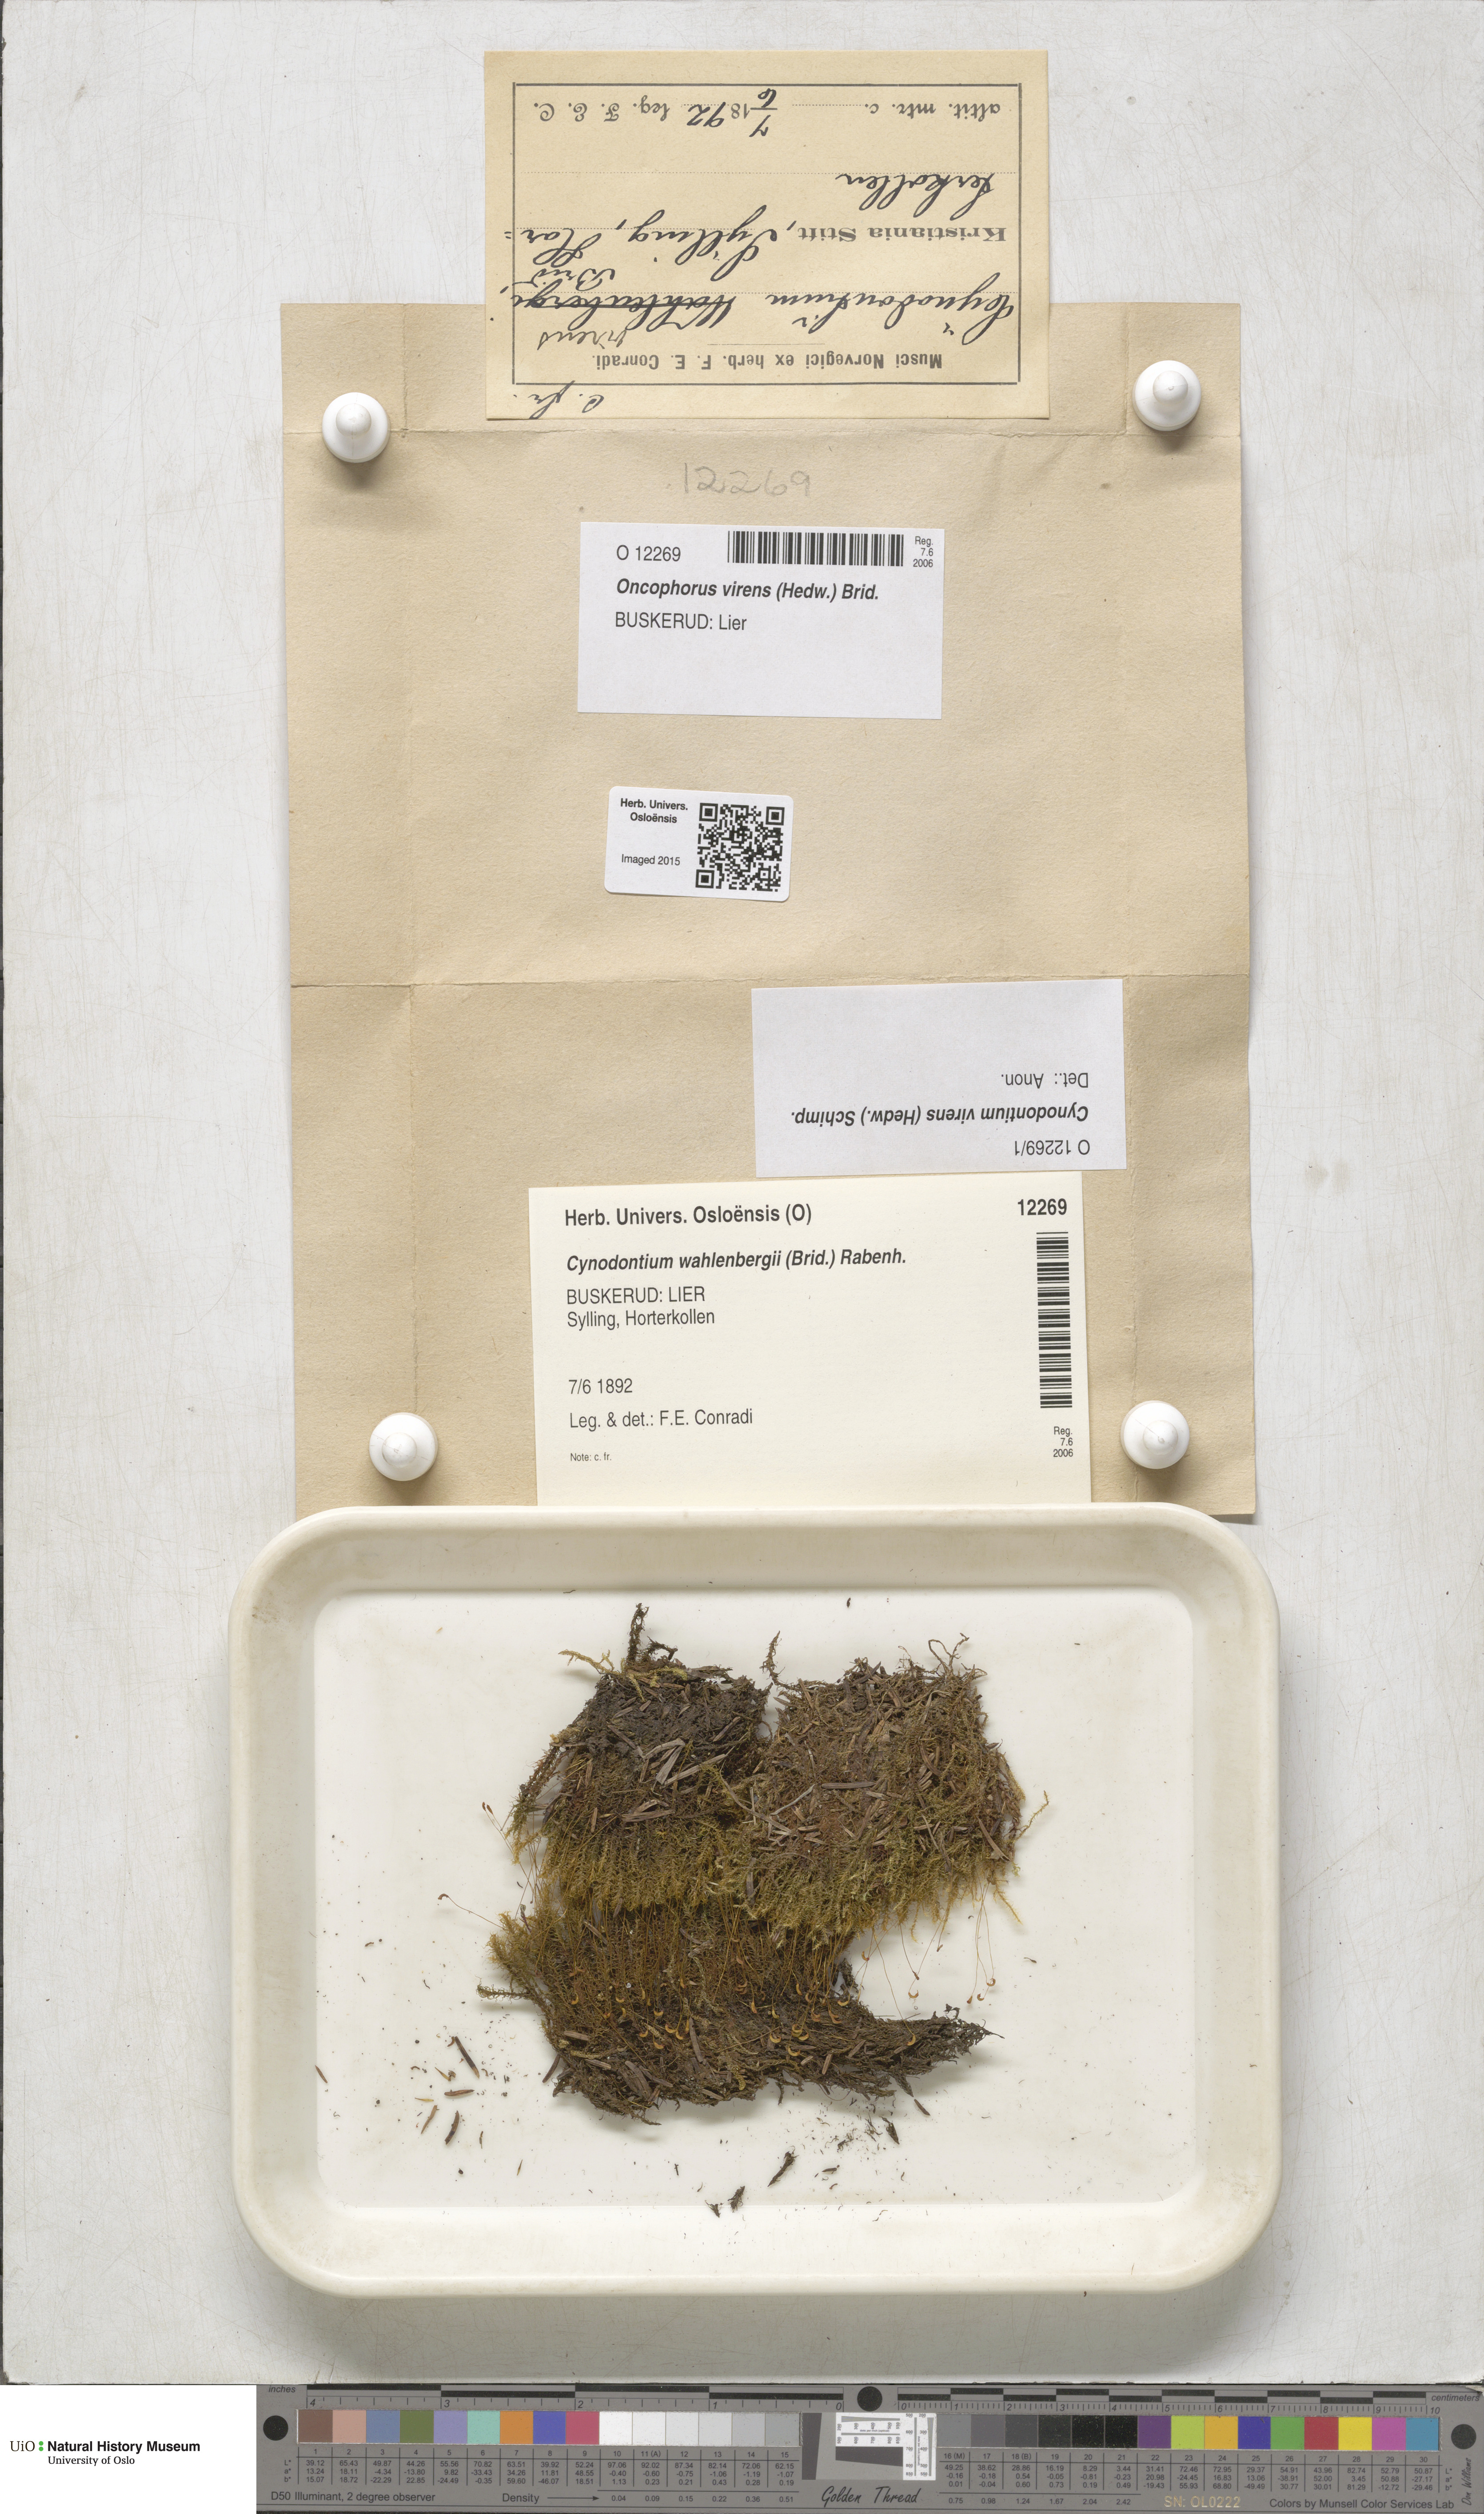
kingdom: Plantae
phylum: Bryophyta
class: Bryopsida
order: Dicranales
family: Rhabdoweisiaceae
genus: Oncophorus
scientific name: Oncophorus virens
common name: Green spur moss
